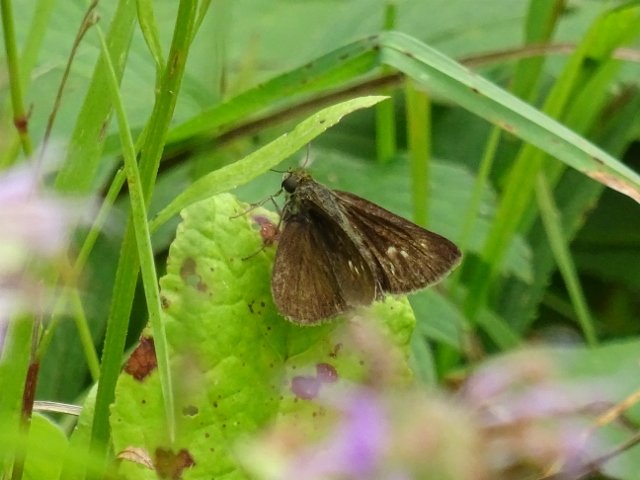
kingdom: Animalia
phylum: Arthropoda
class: Insecta
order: Lepidoptera
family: Hesperiidae
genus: Polites
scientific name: Polites egeremet
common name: Northern Broken-Dash
